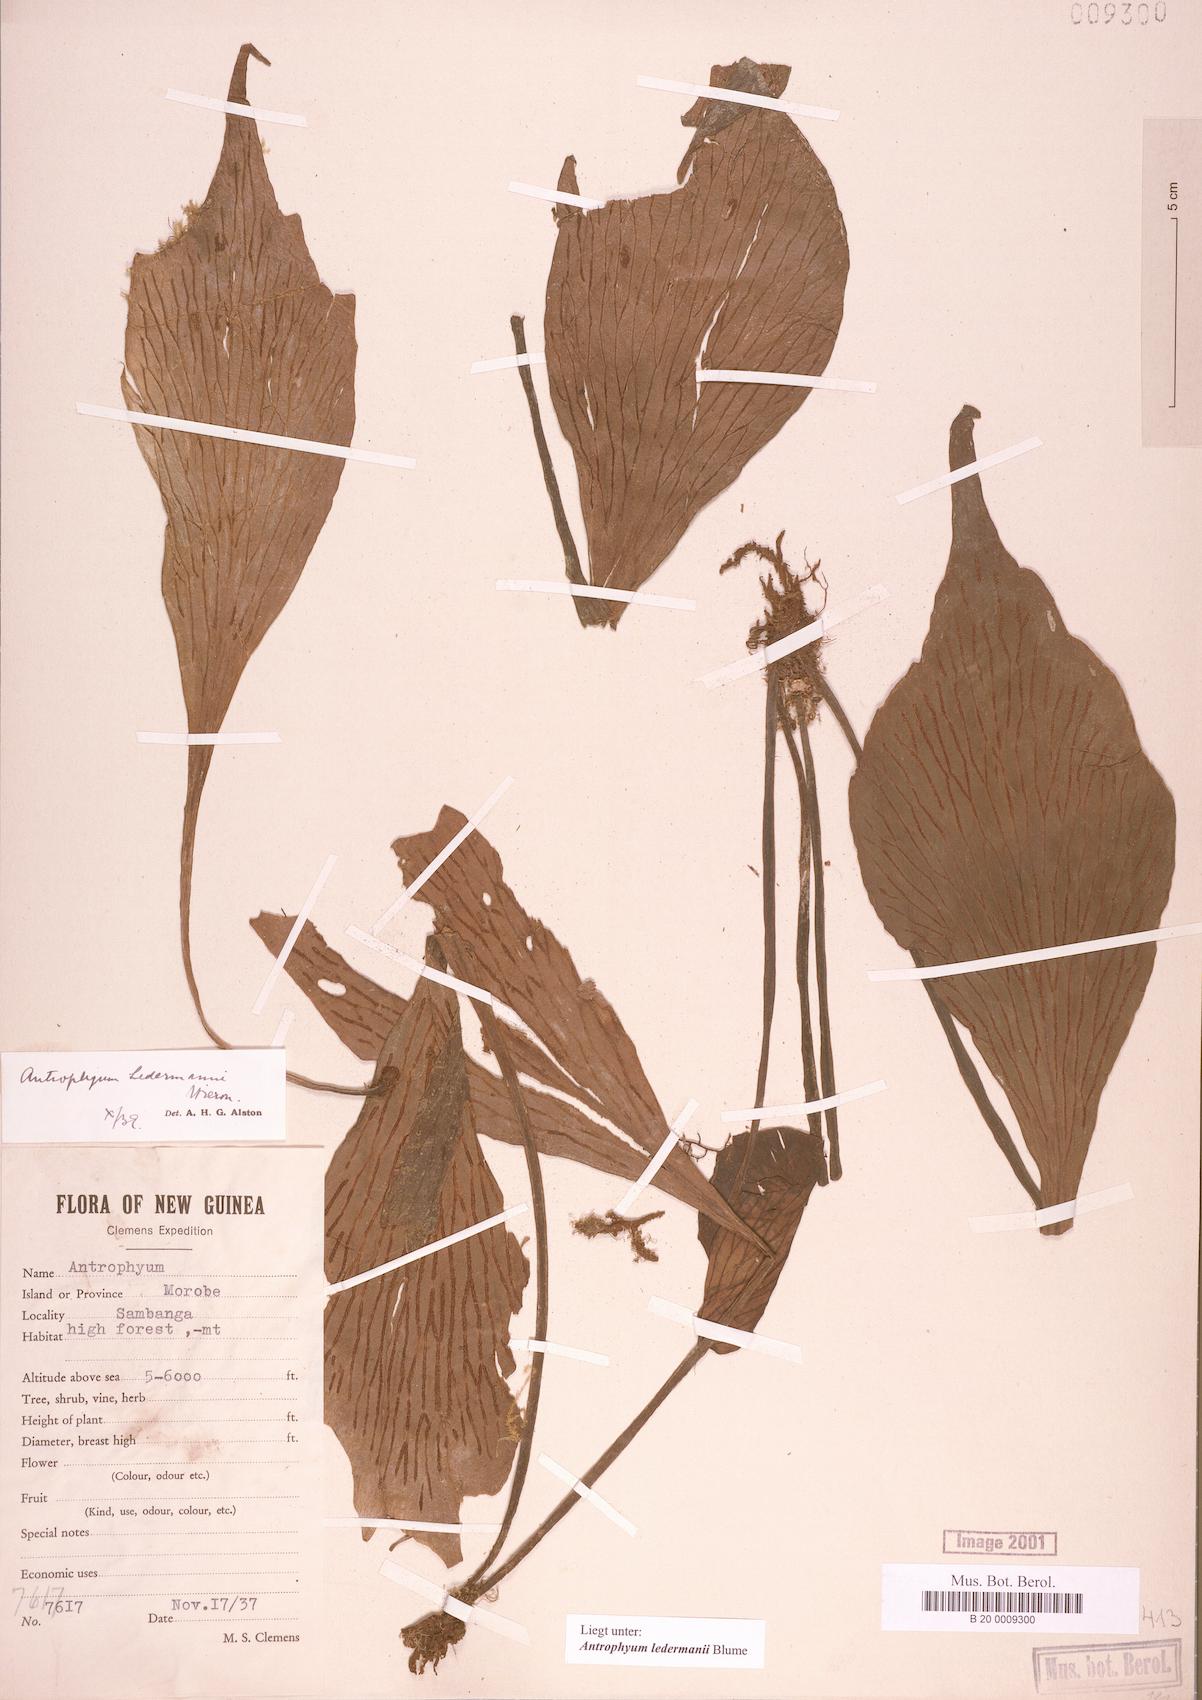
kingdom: Plantae
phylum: Tracheophyta
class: Polypodiopsida
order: Polypodiales
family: Pteridaceae
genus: Antrophyum
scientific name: Antrophyum ledermannii
